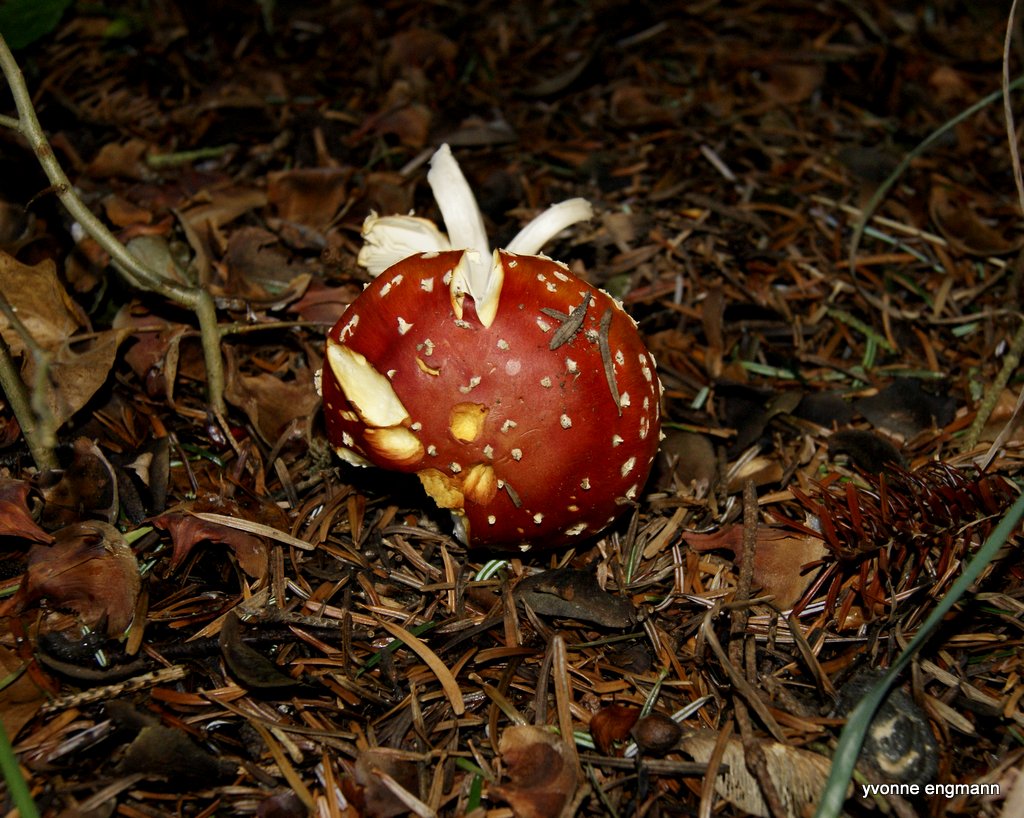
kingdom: Fungi
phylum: Basidiomycota
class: Agaricomycetes
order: Agaricales
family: Amanitaceae
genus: Amanita
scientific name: Amanita muscaria
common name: rød fluesvamp
